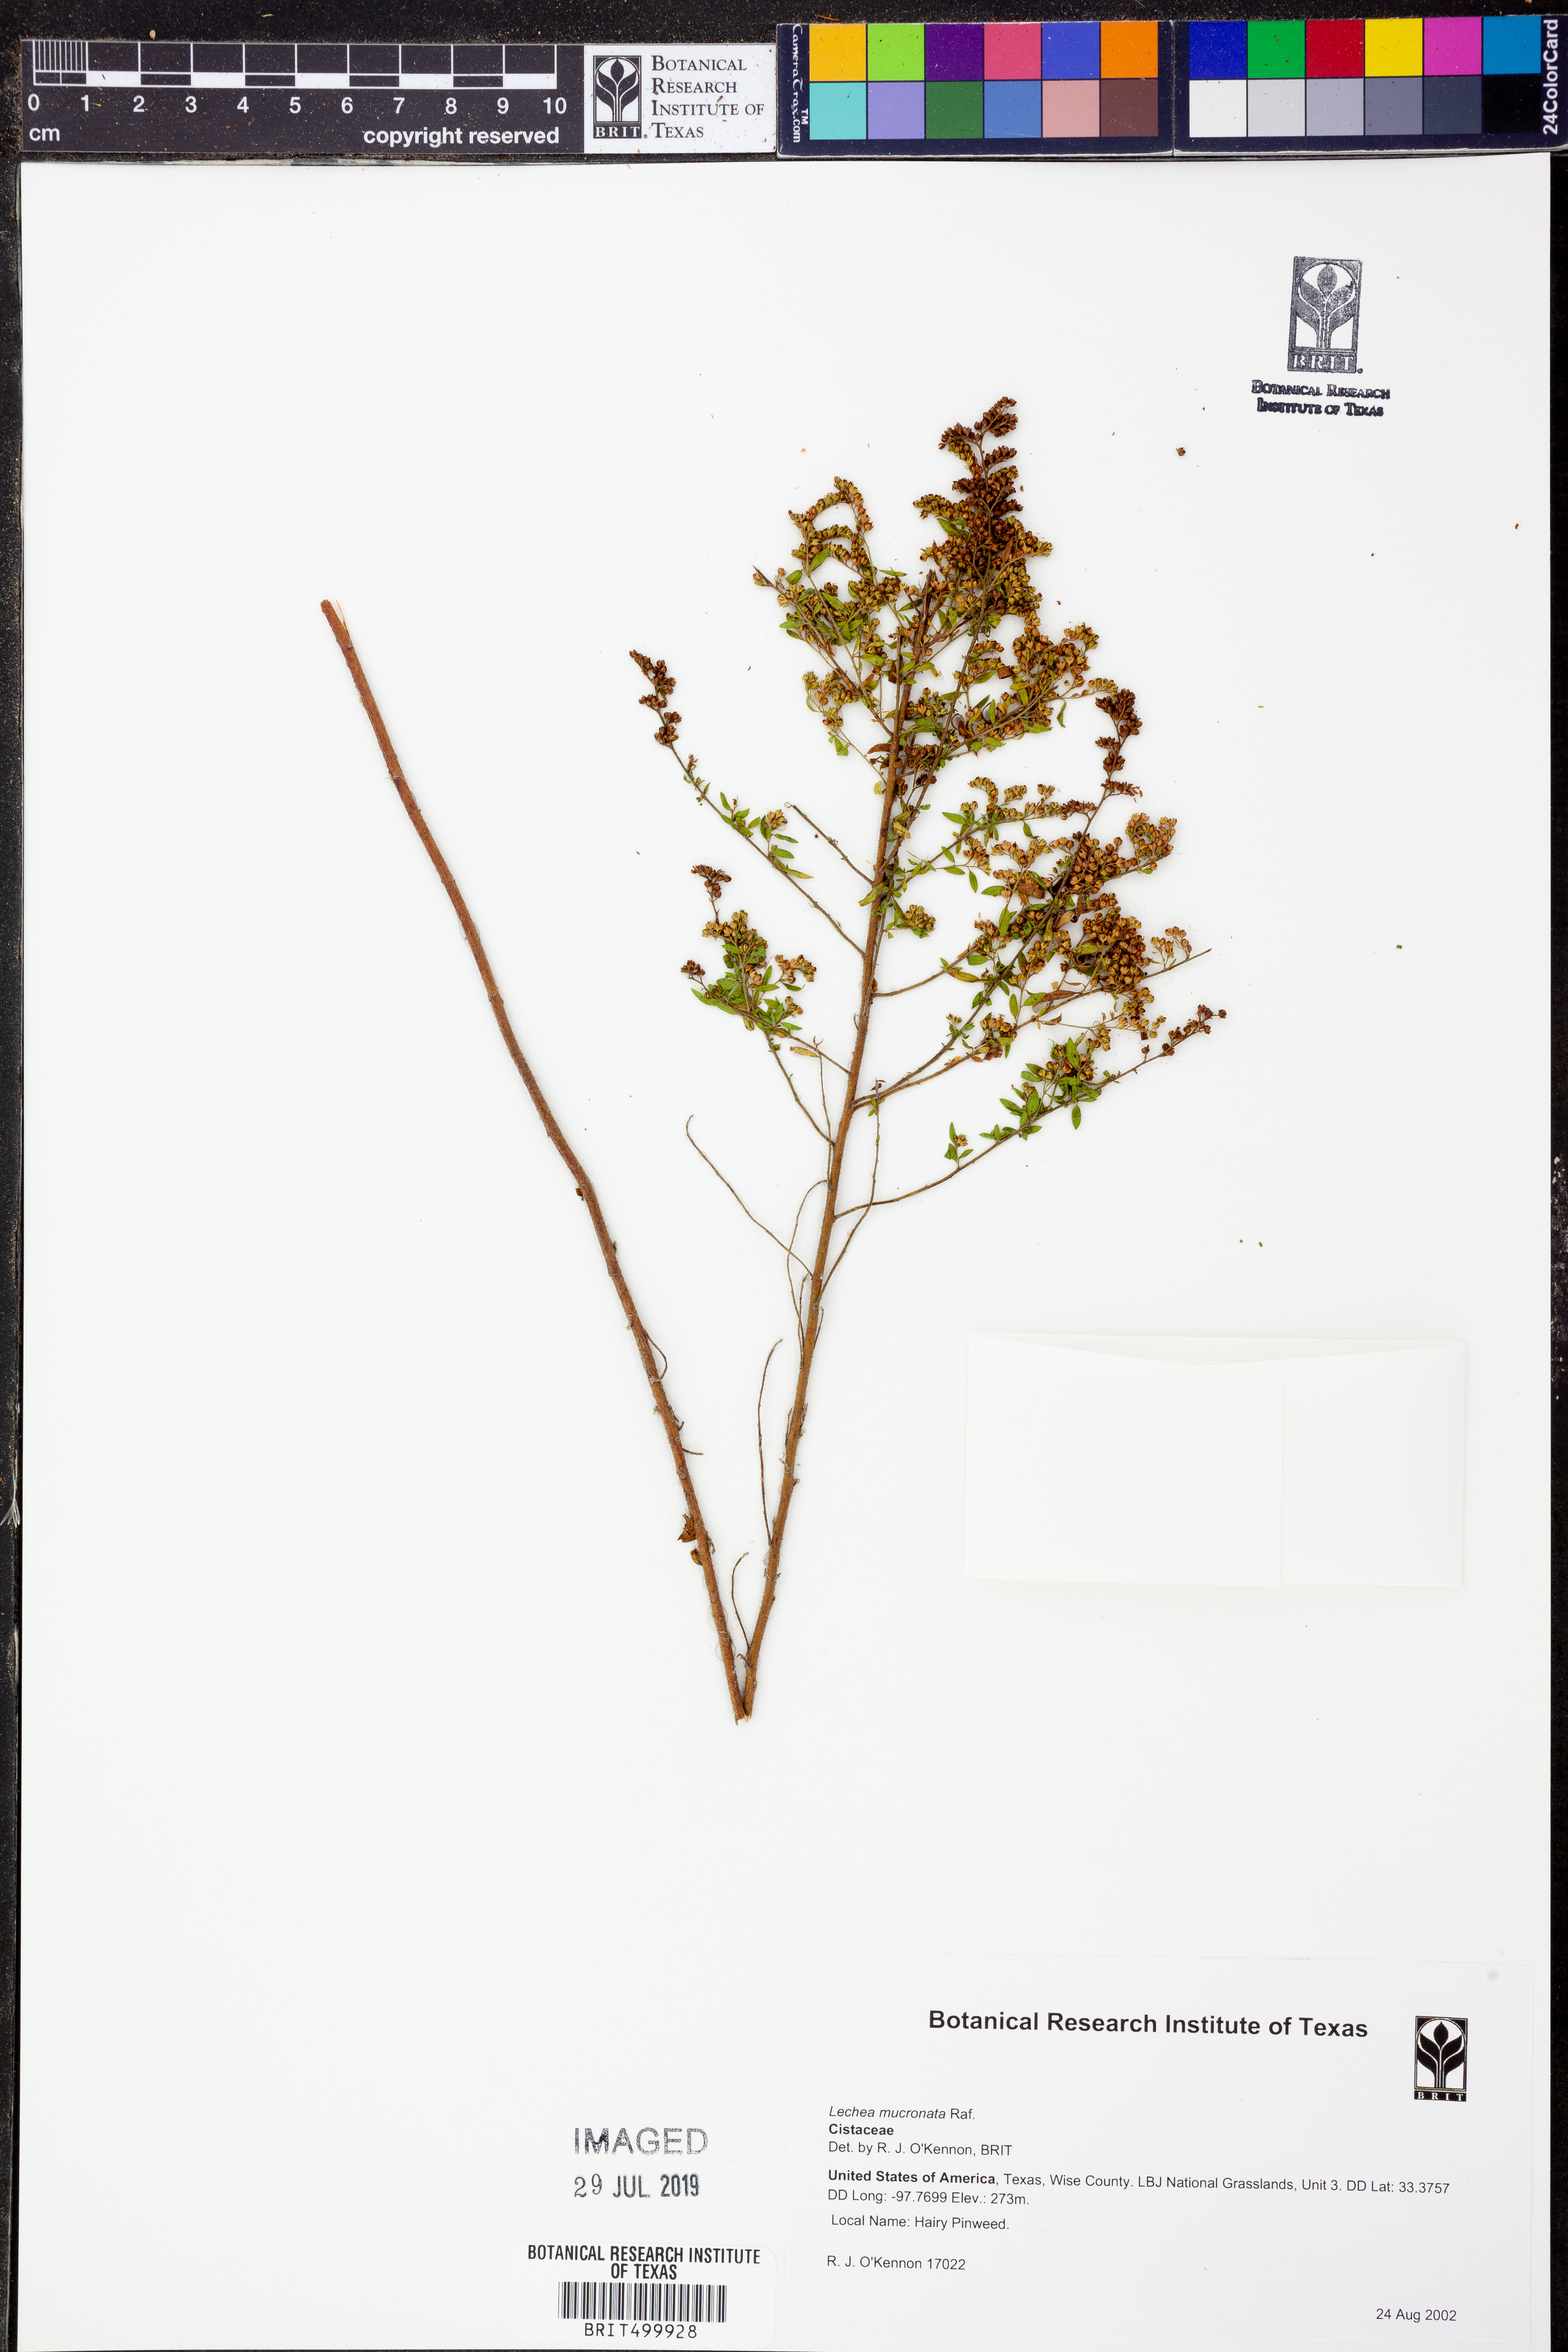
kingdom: Plantae
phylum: Tracheophyta
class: Magnoliopsida
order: Malvales
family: Cistaceae
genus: Lechea
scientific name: Lechea mucronata
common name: Hairy pinweed
